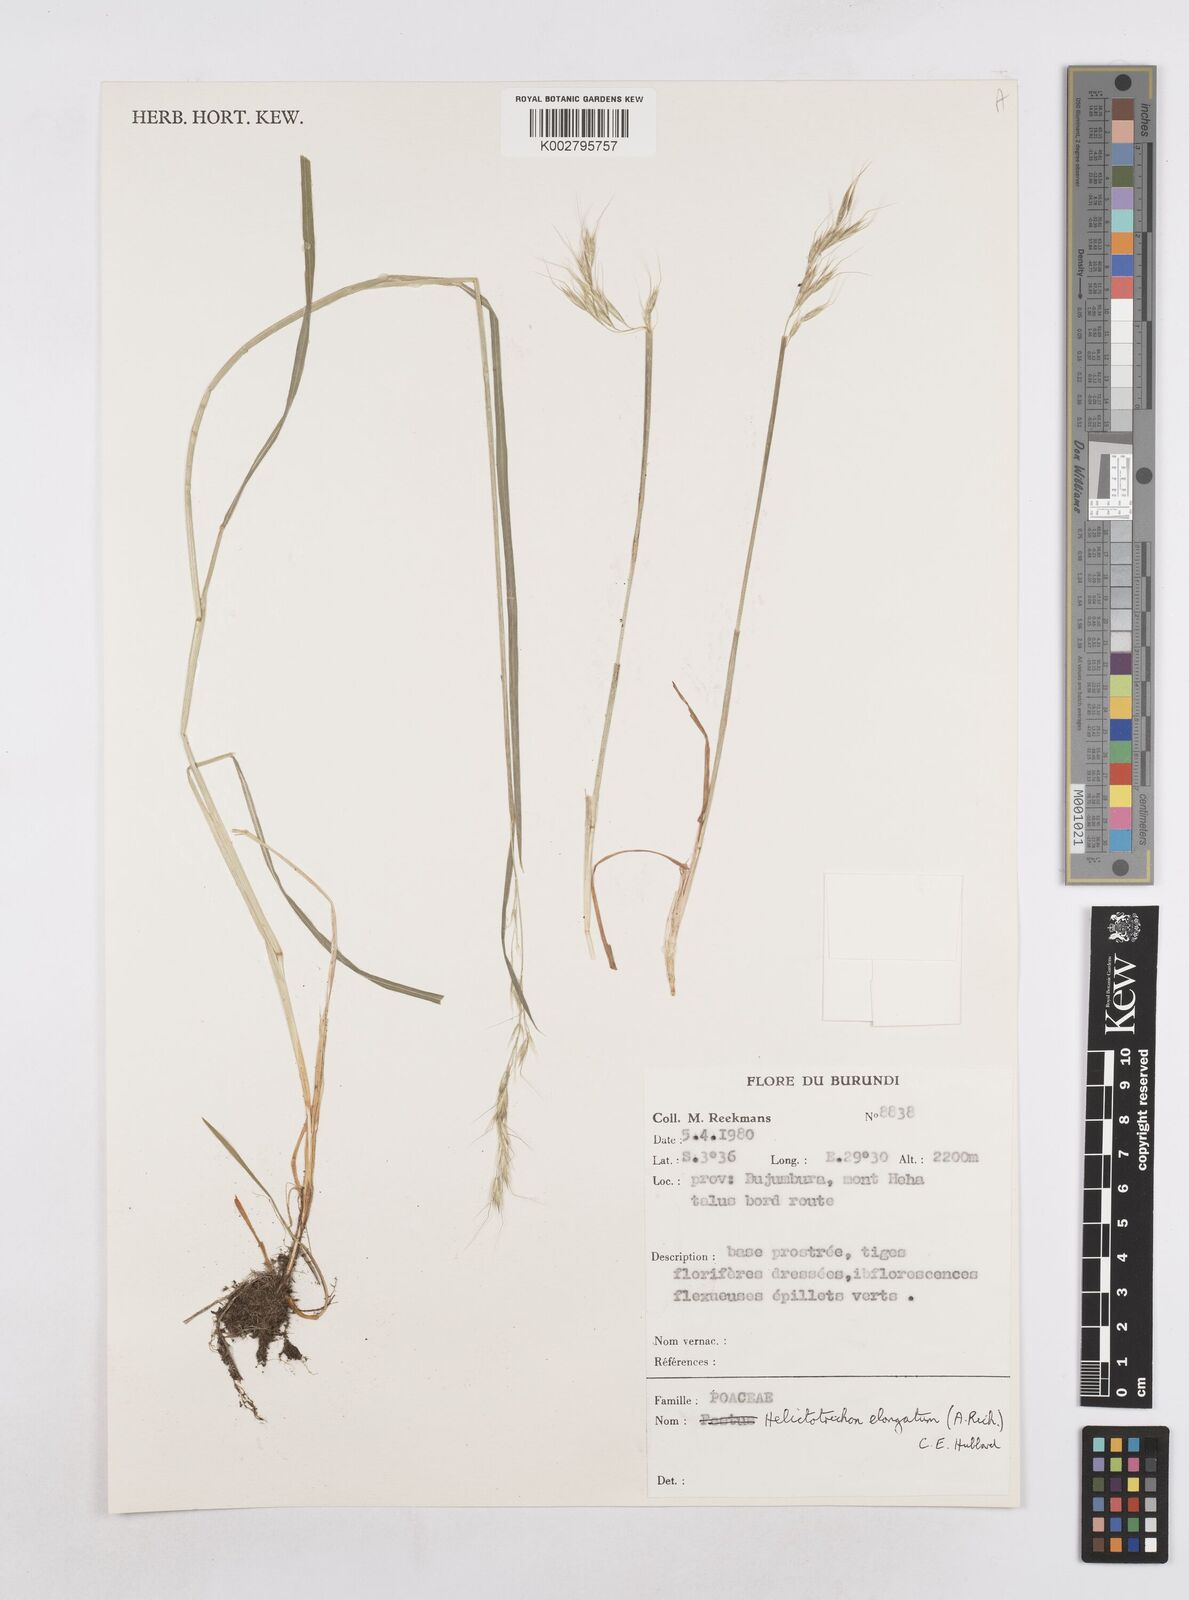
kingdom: Plantae
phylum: Tracheophyta
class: Liliopsida
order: Poales
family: Poaceae
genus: Trisetopsis
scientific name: Trisetopsis elongata
